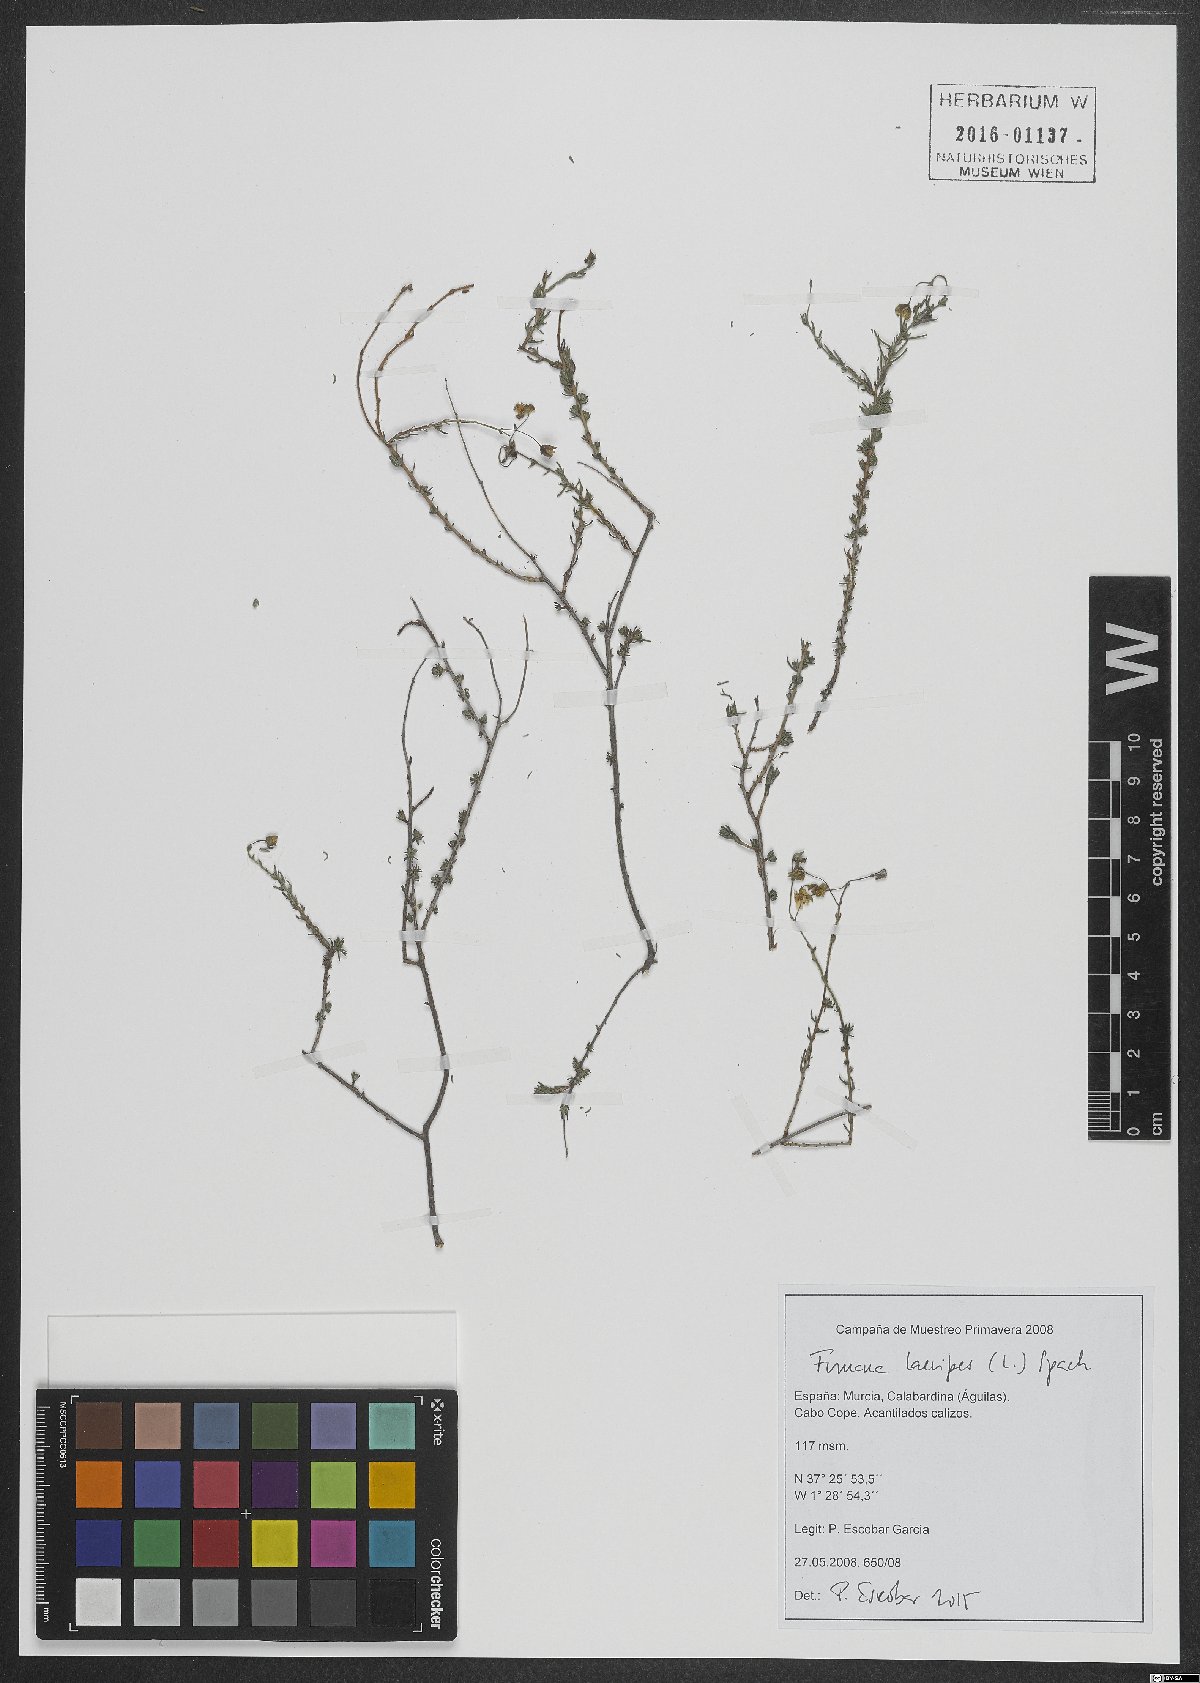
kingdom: Plantae
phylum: Tracheophyta
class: Magnoliopsida
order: Malvales
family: Cistaceae
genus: Fumana
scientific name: Fumana laevipes
